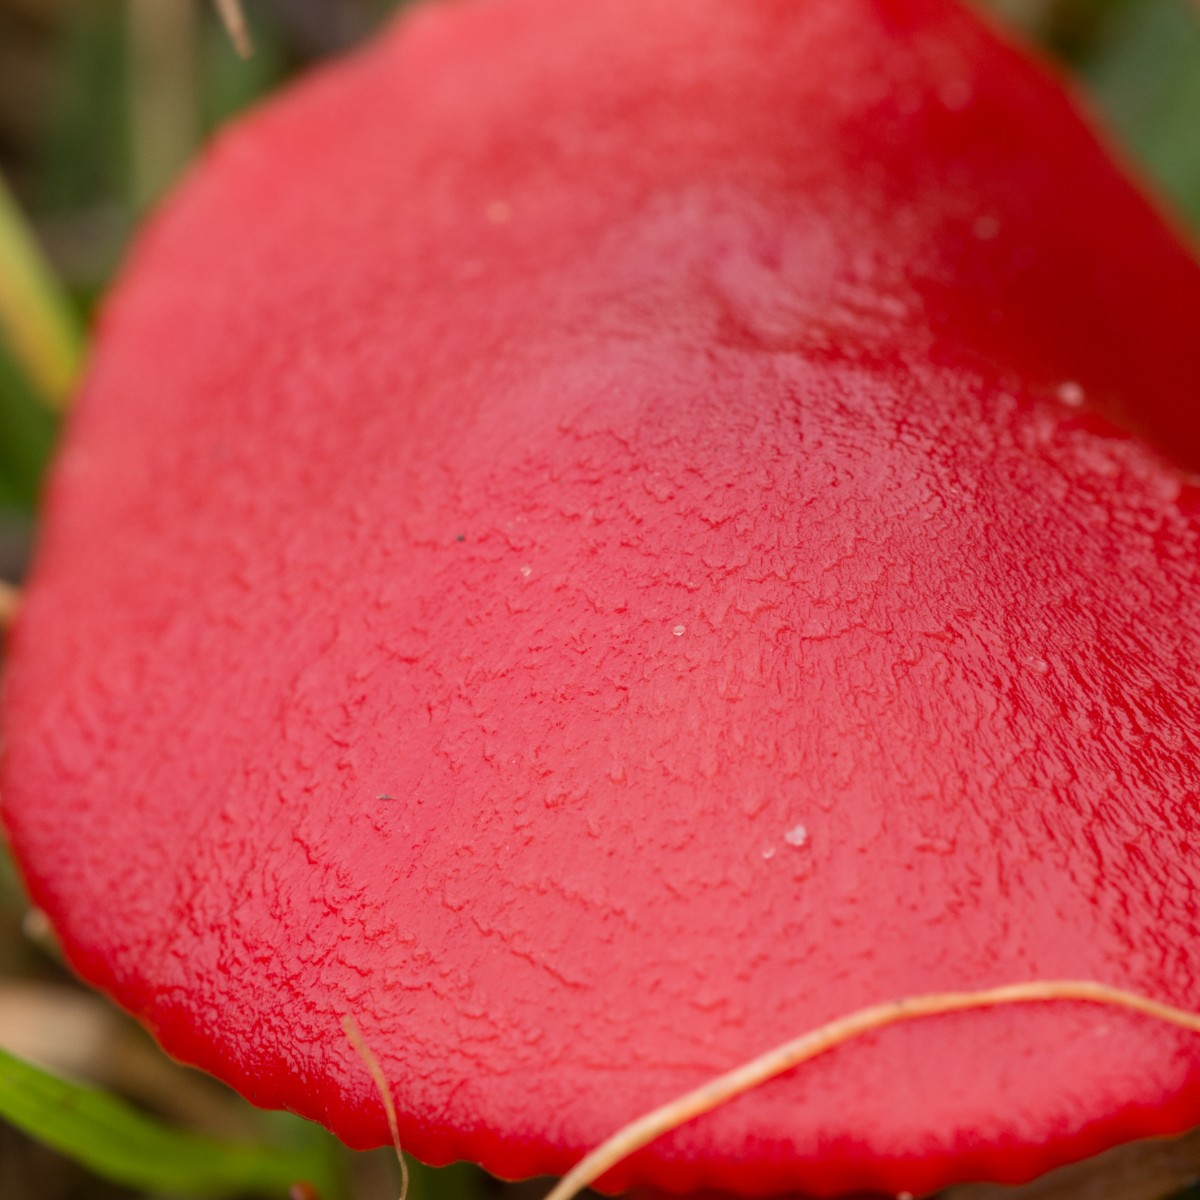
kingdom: Fungi
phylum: Basidiomycota
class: Agaricomycetes
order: Agaricales
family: Hygrophoraceae
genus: Hygrocybe
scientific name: Hygrocybe coccinea
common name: cinnober-vokshat
